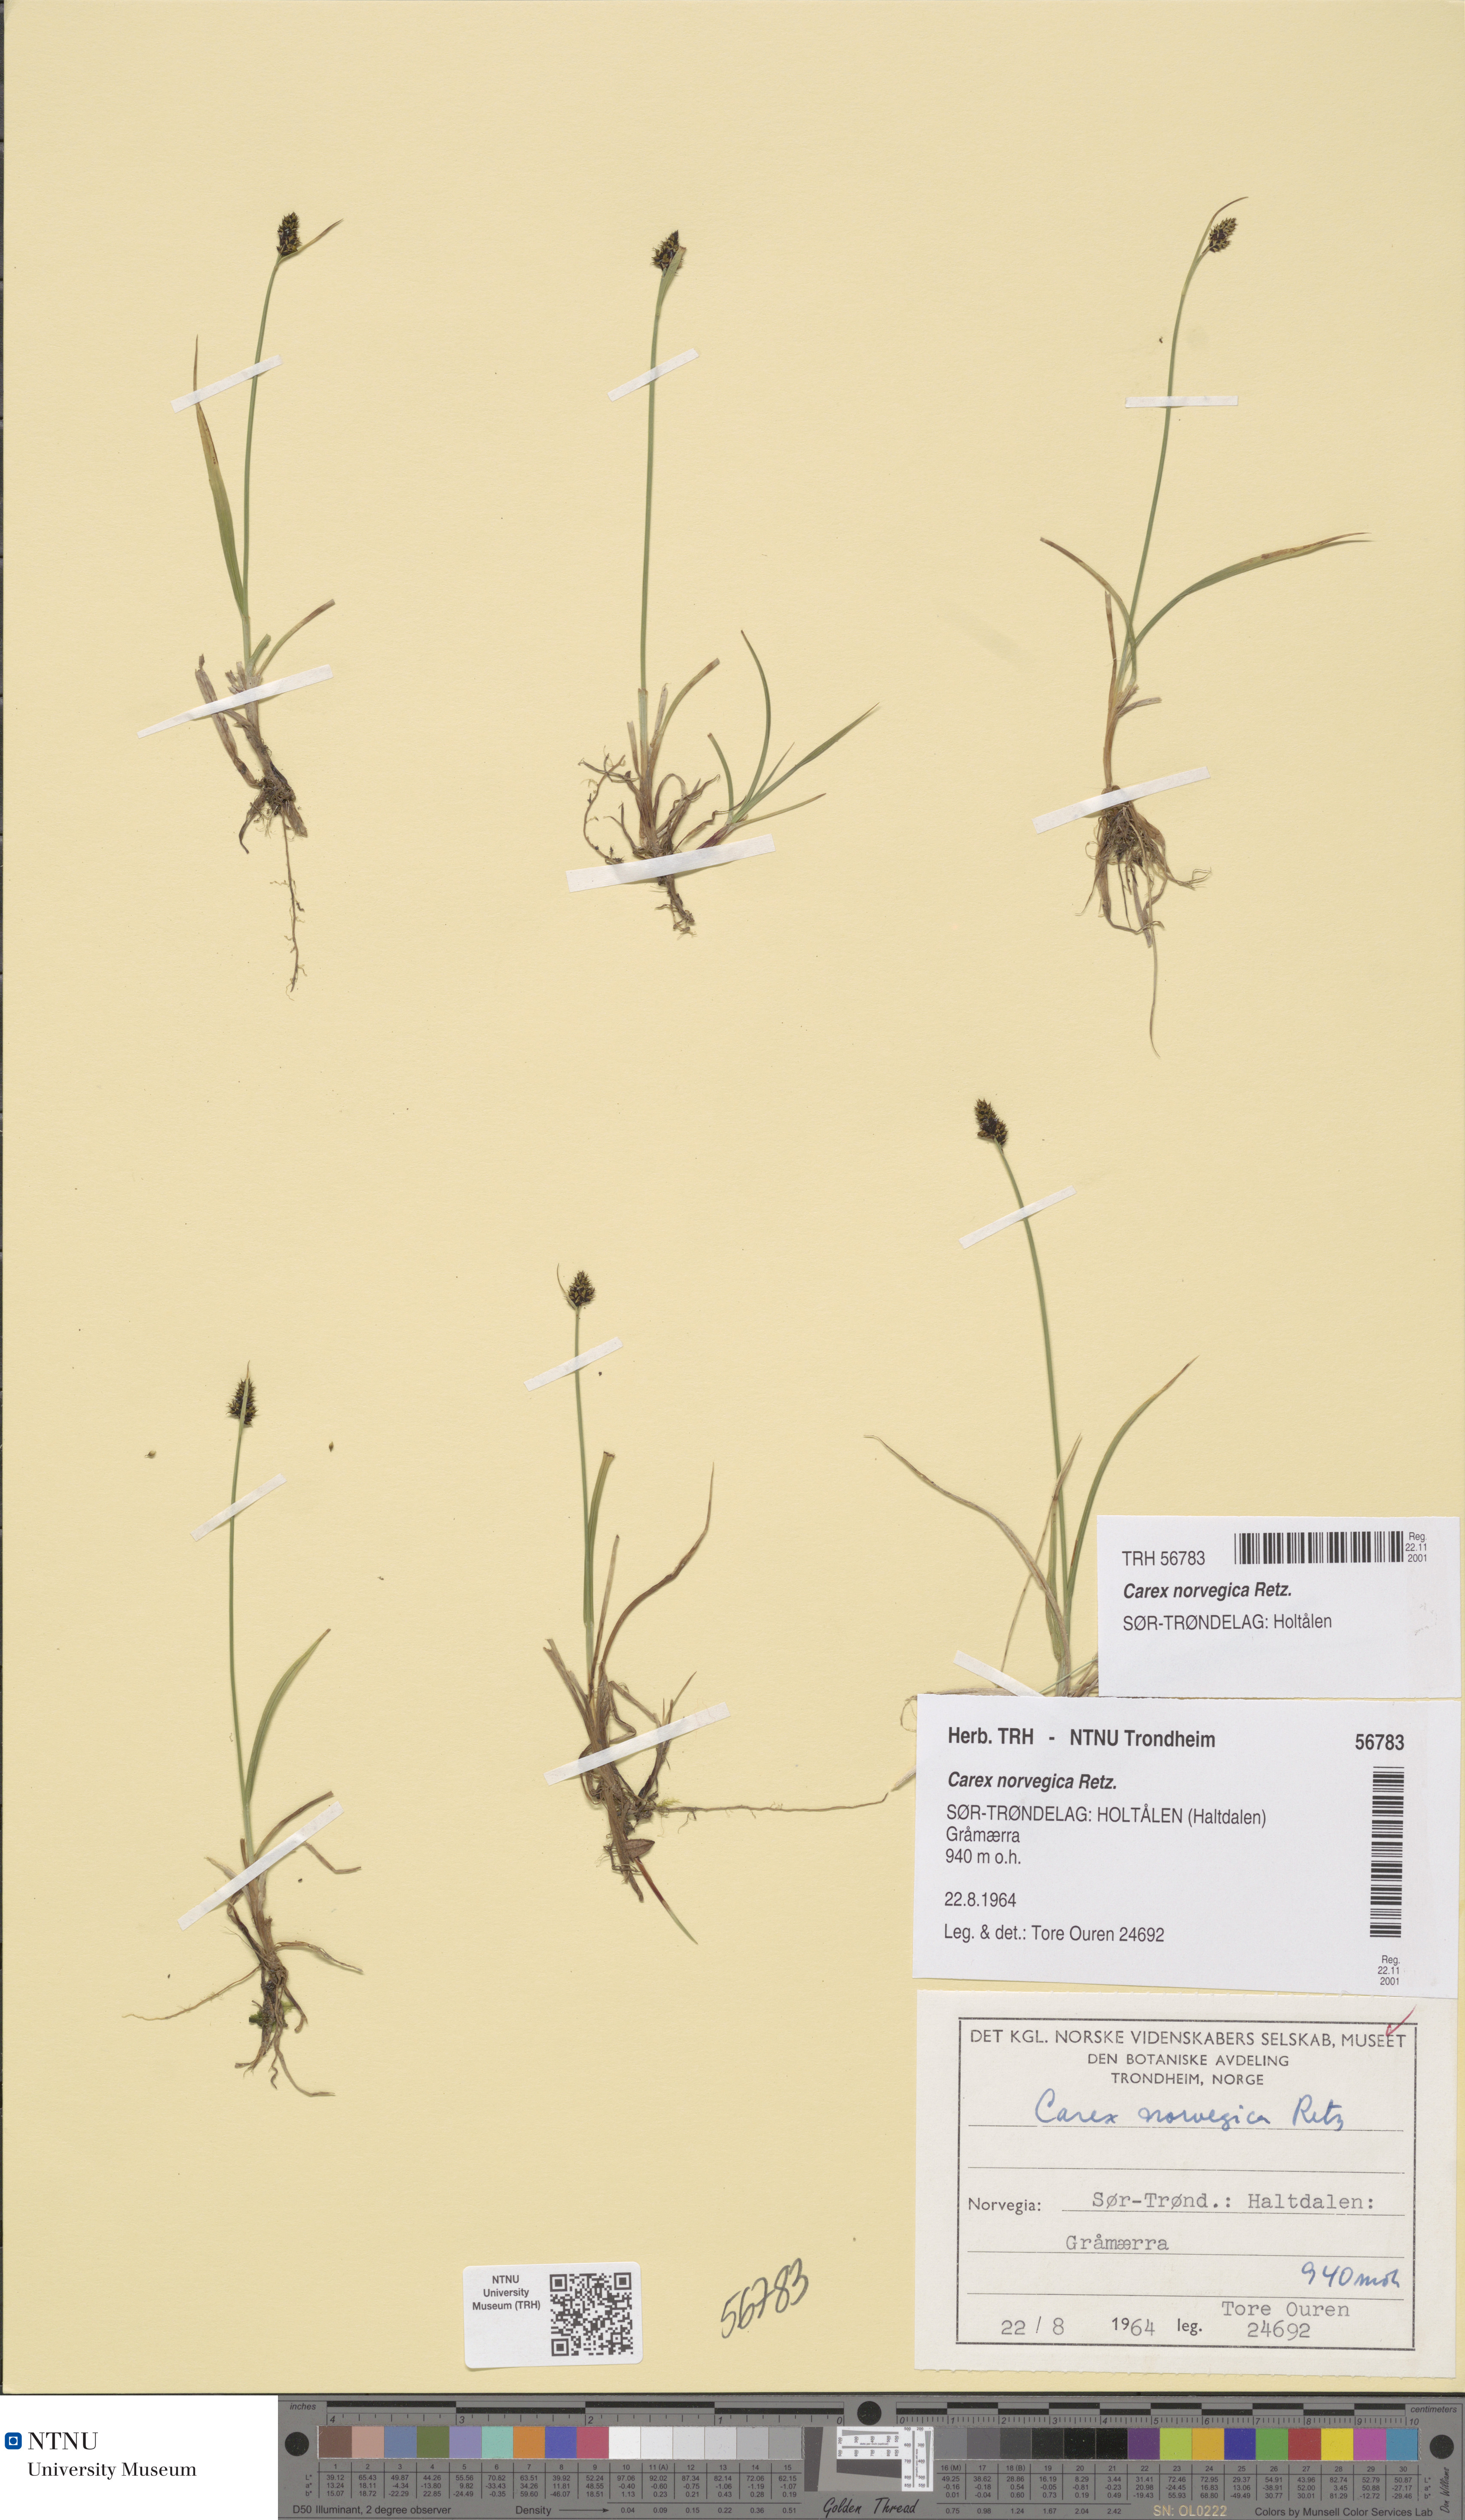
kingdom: Plantae
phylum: Tracheophyta
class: Liliopsida
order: Poales
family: Cyperaceae
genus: Carex
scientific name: Carex norvegica
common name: Close-headed alpine-sedge
